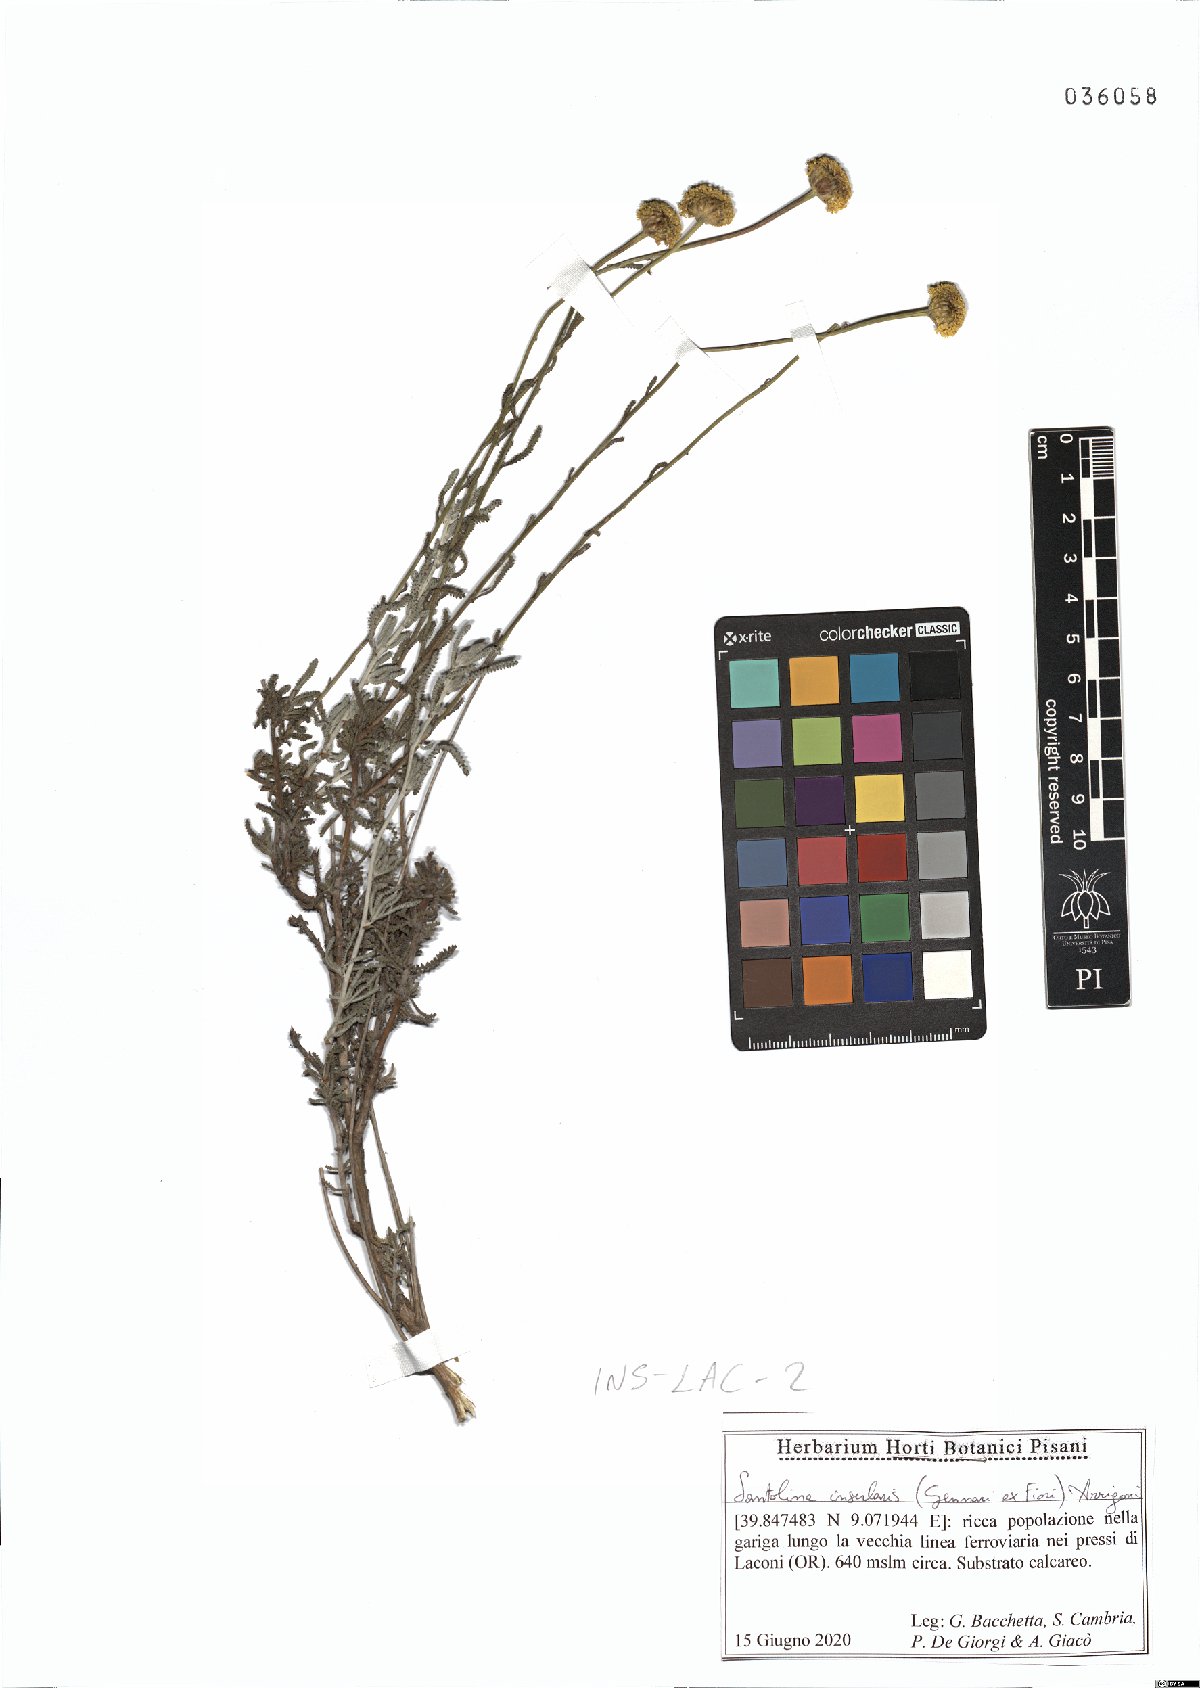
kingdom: Plantae
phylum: Tracheophyta
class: Magnoliopsida
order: Asterales
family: Asteraceae
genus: Santolina
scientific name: Santolina insularis
